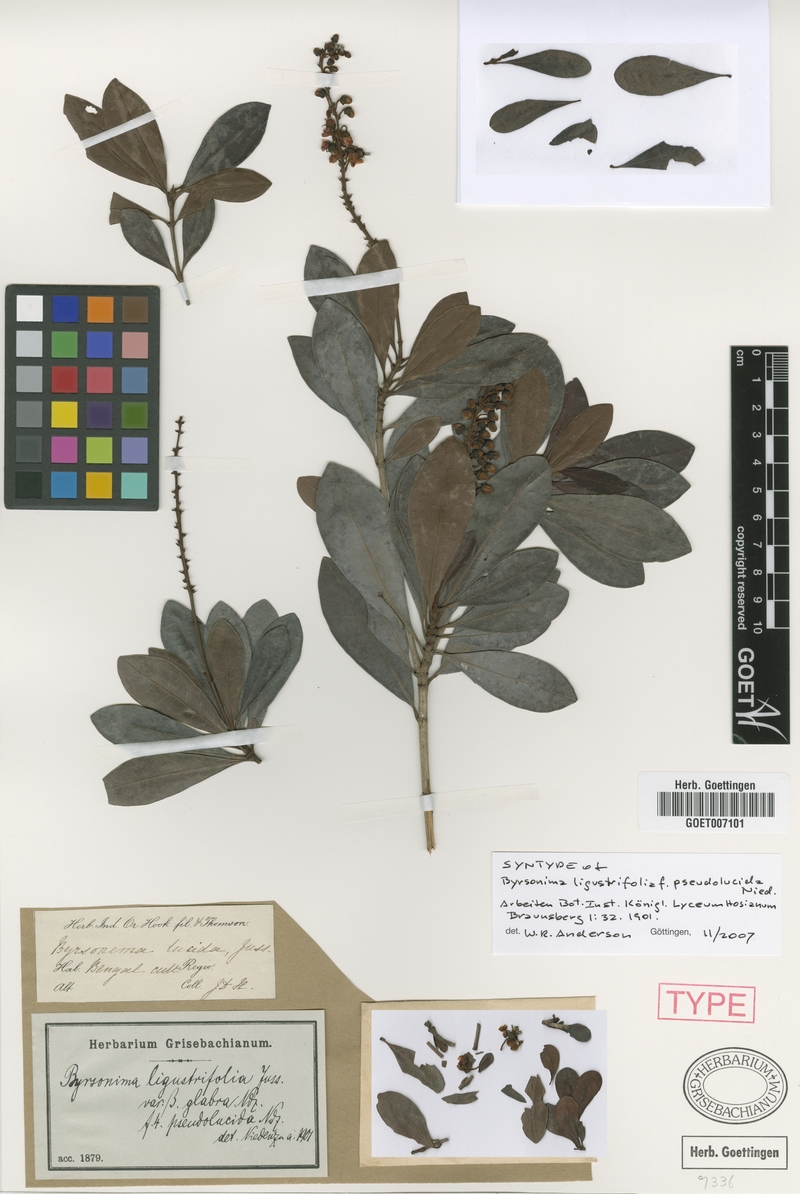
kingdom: Plantae
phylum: Tracheophyta
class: Magnoliopsida
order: Malpighiales
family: Malpighiaceae
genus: Byrsonima
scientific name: Byrsonima ligustrifolia
